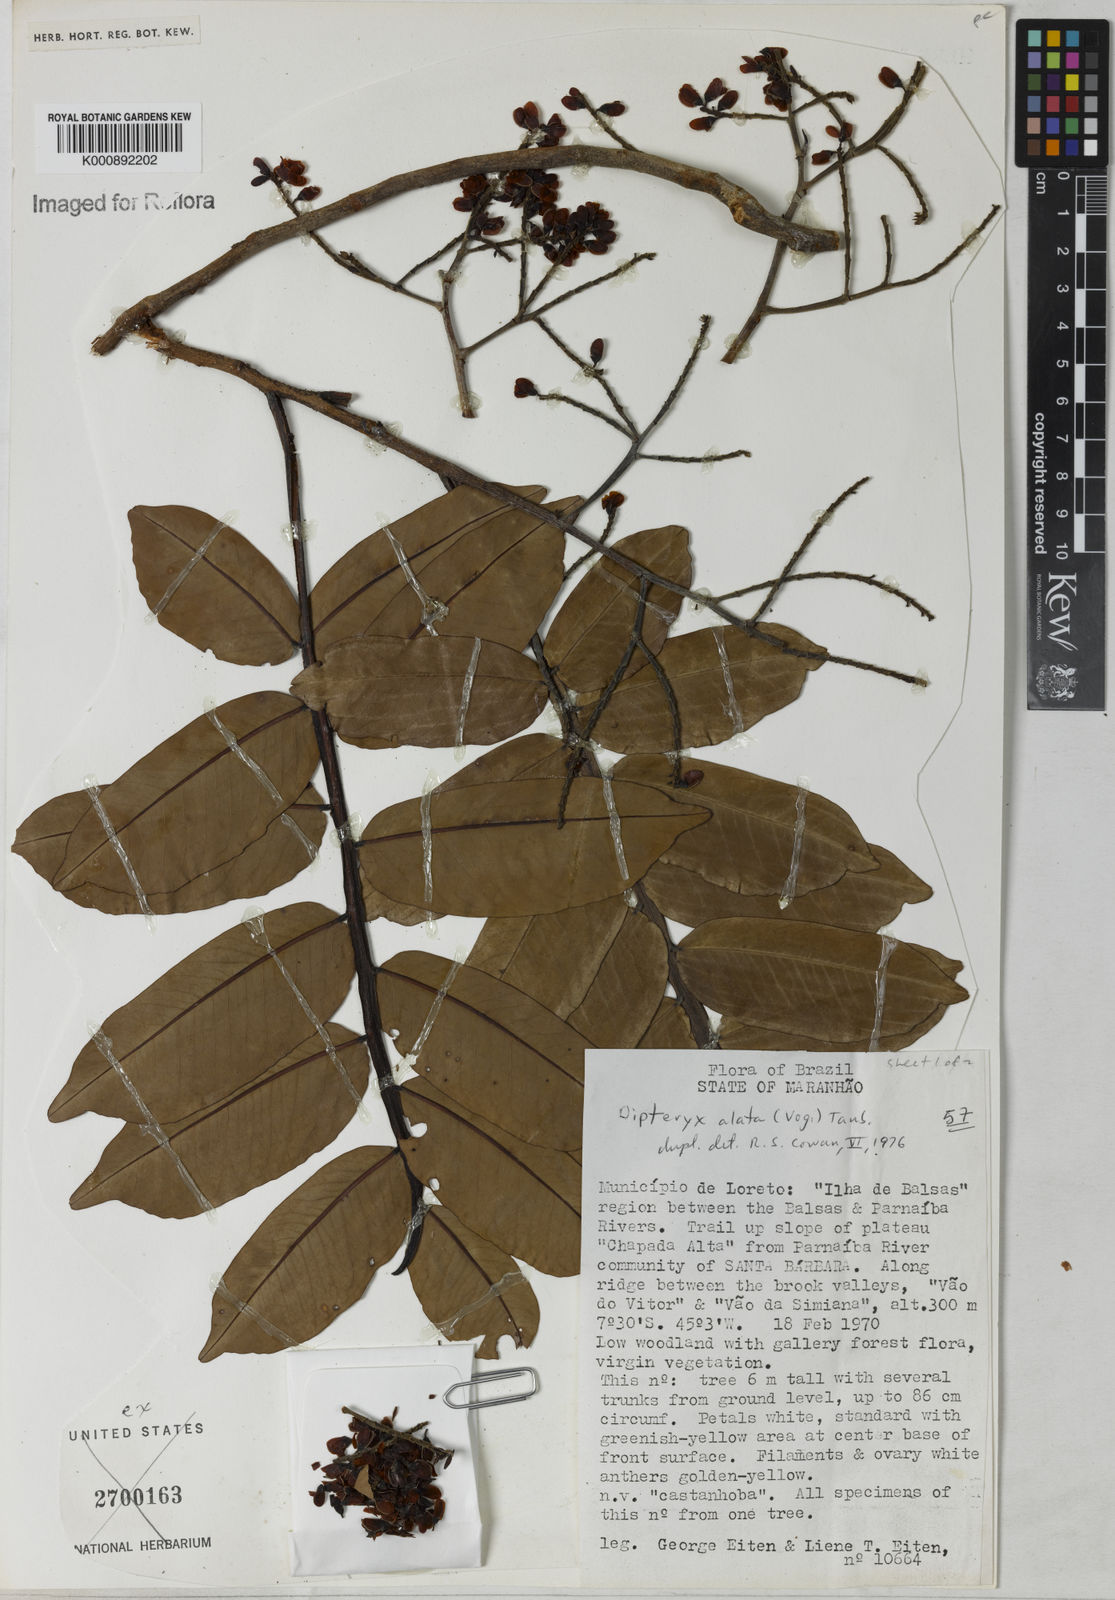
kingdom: Plantae
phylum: Tracheophyta
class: Magnoliopsida
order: Fabales
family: Fabaceae
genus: Dipteryx
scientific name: Dipteryx alata
